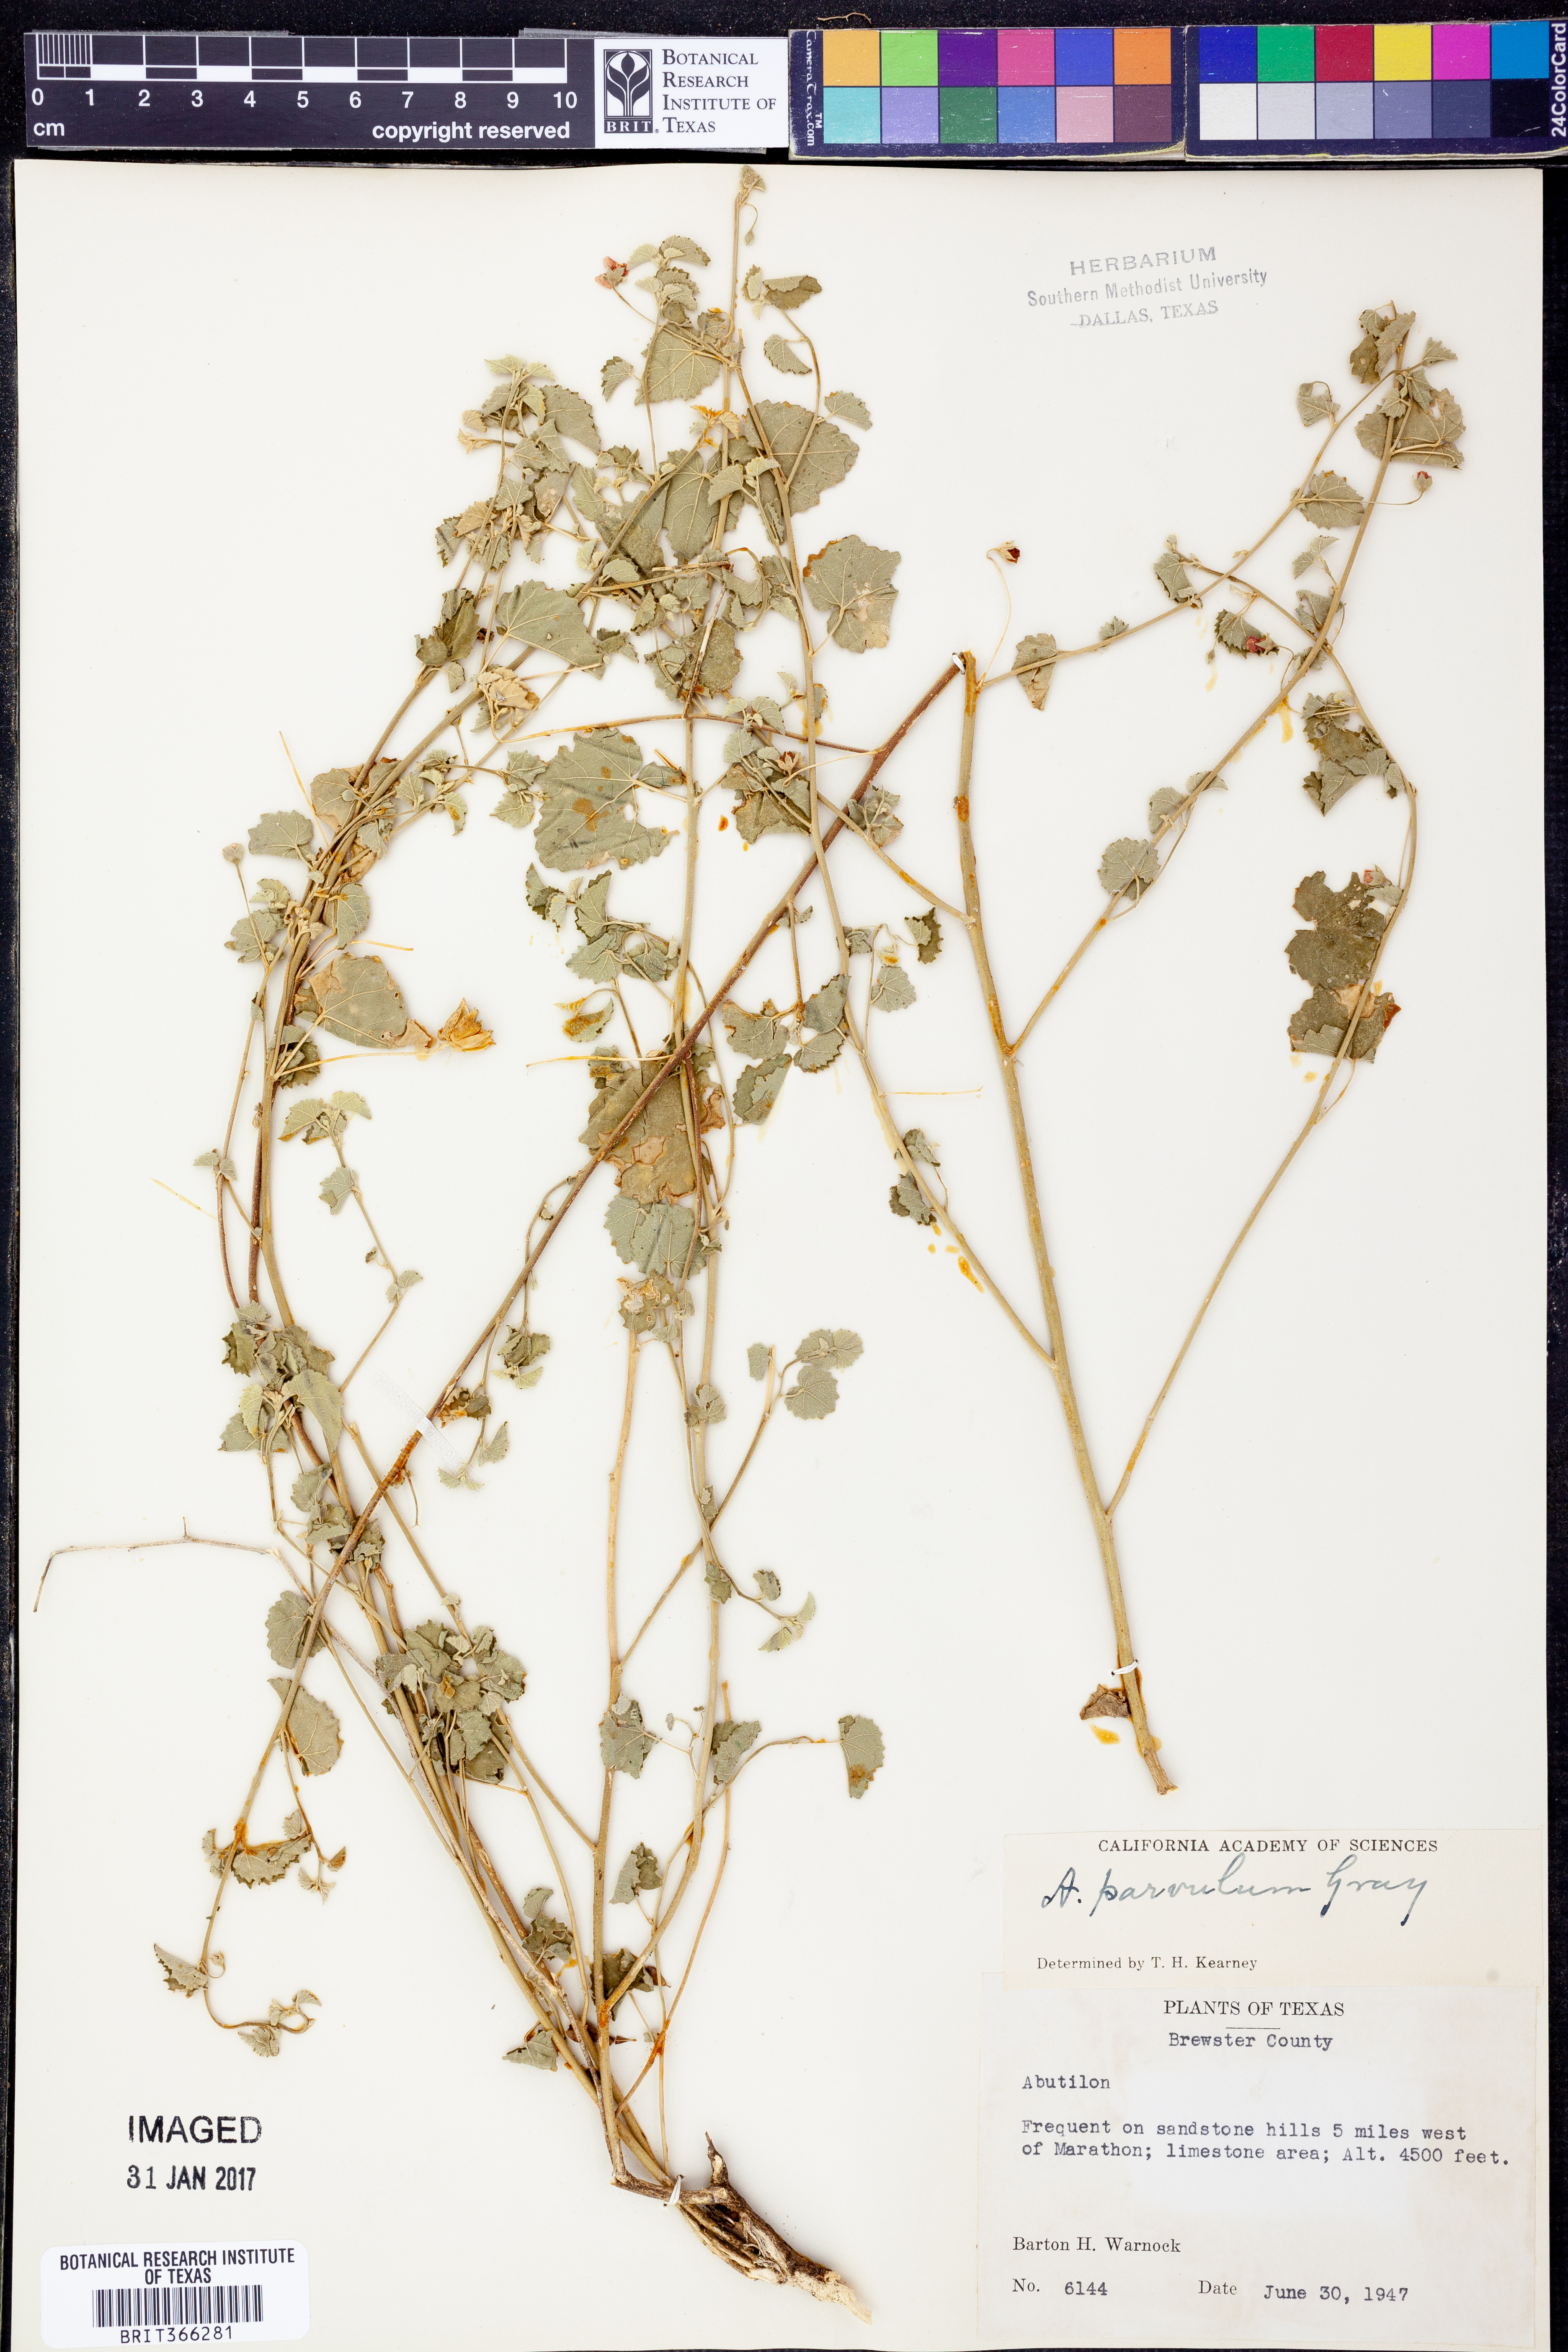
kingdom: Plantae
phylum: Tracheophyta
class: Magnoliopsida
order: Malvales
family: Malvaceae
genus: Abutilon
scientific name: Abutilon parvulum
